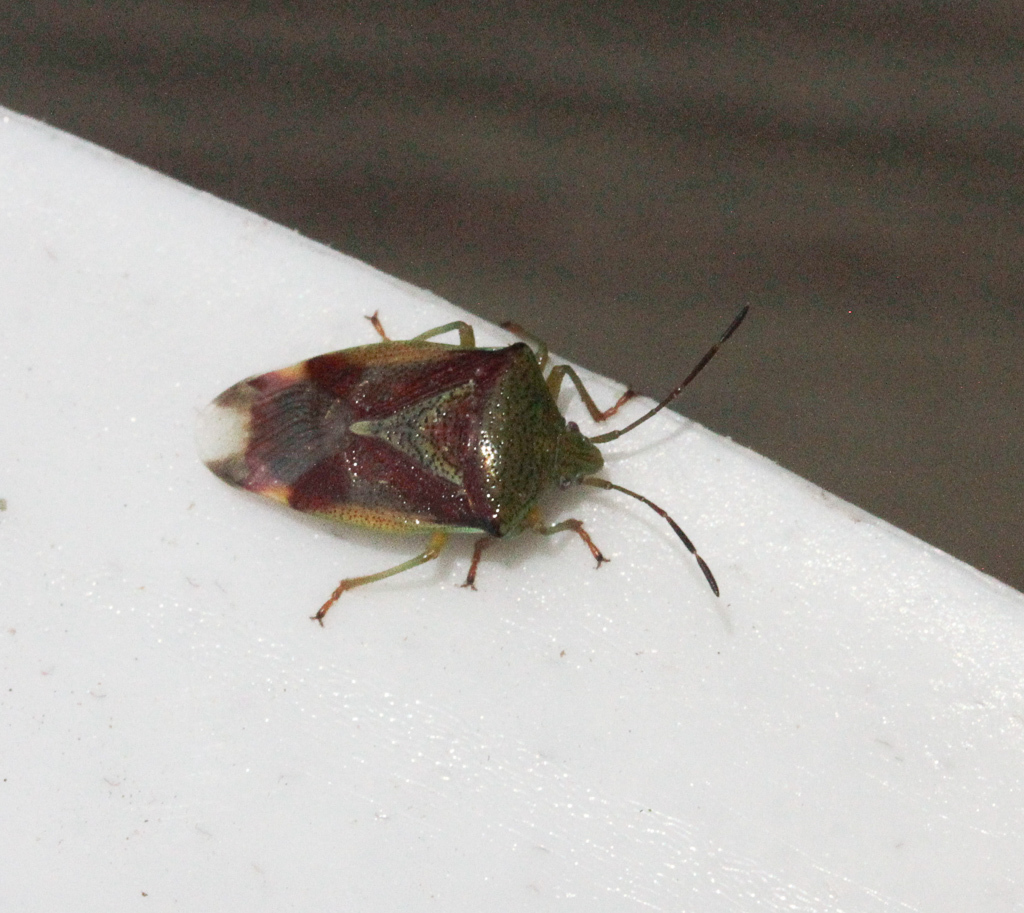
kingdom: Animalia
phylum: Arthropoda
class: Insecta
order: Hemiptera
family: Acanthosomatidae
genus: Elasmostethus
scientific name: Elasmostethus interstinctus
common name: Birch shieldbug
